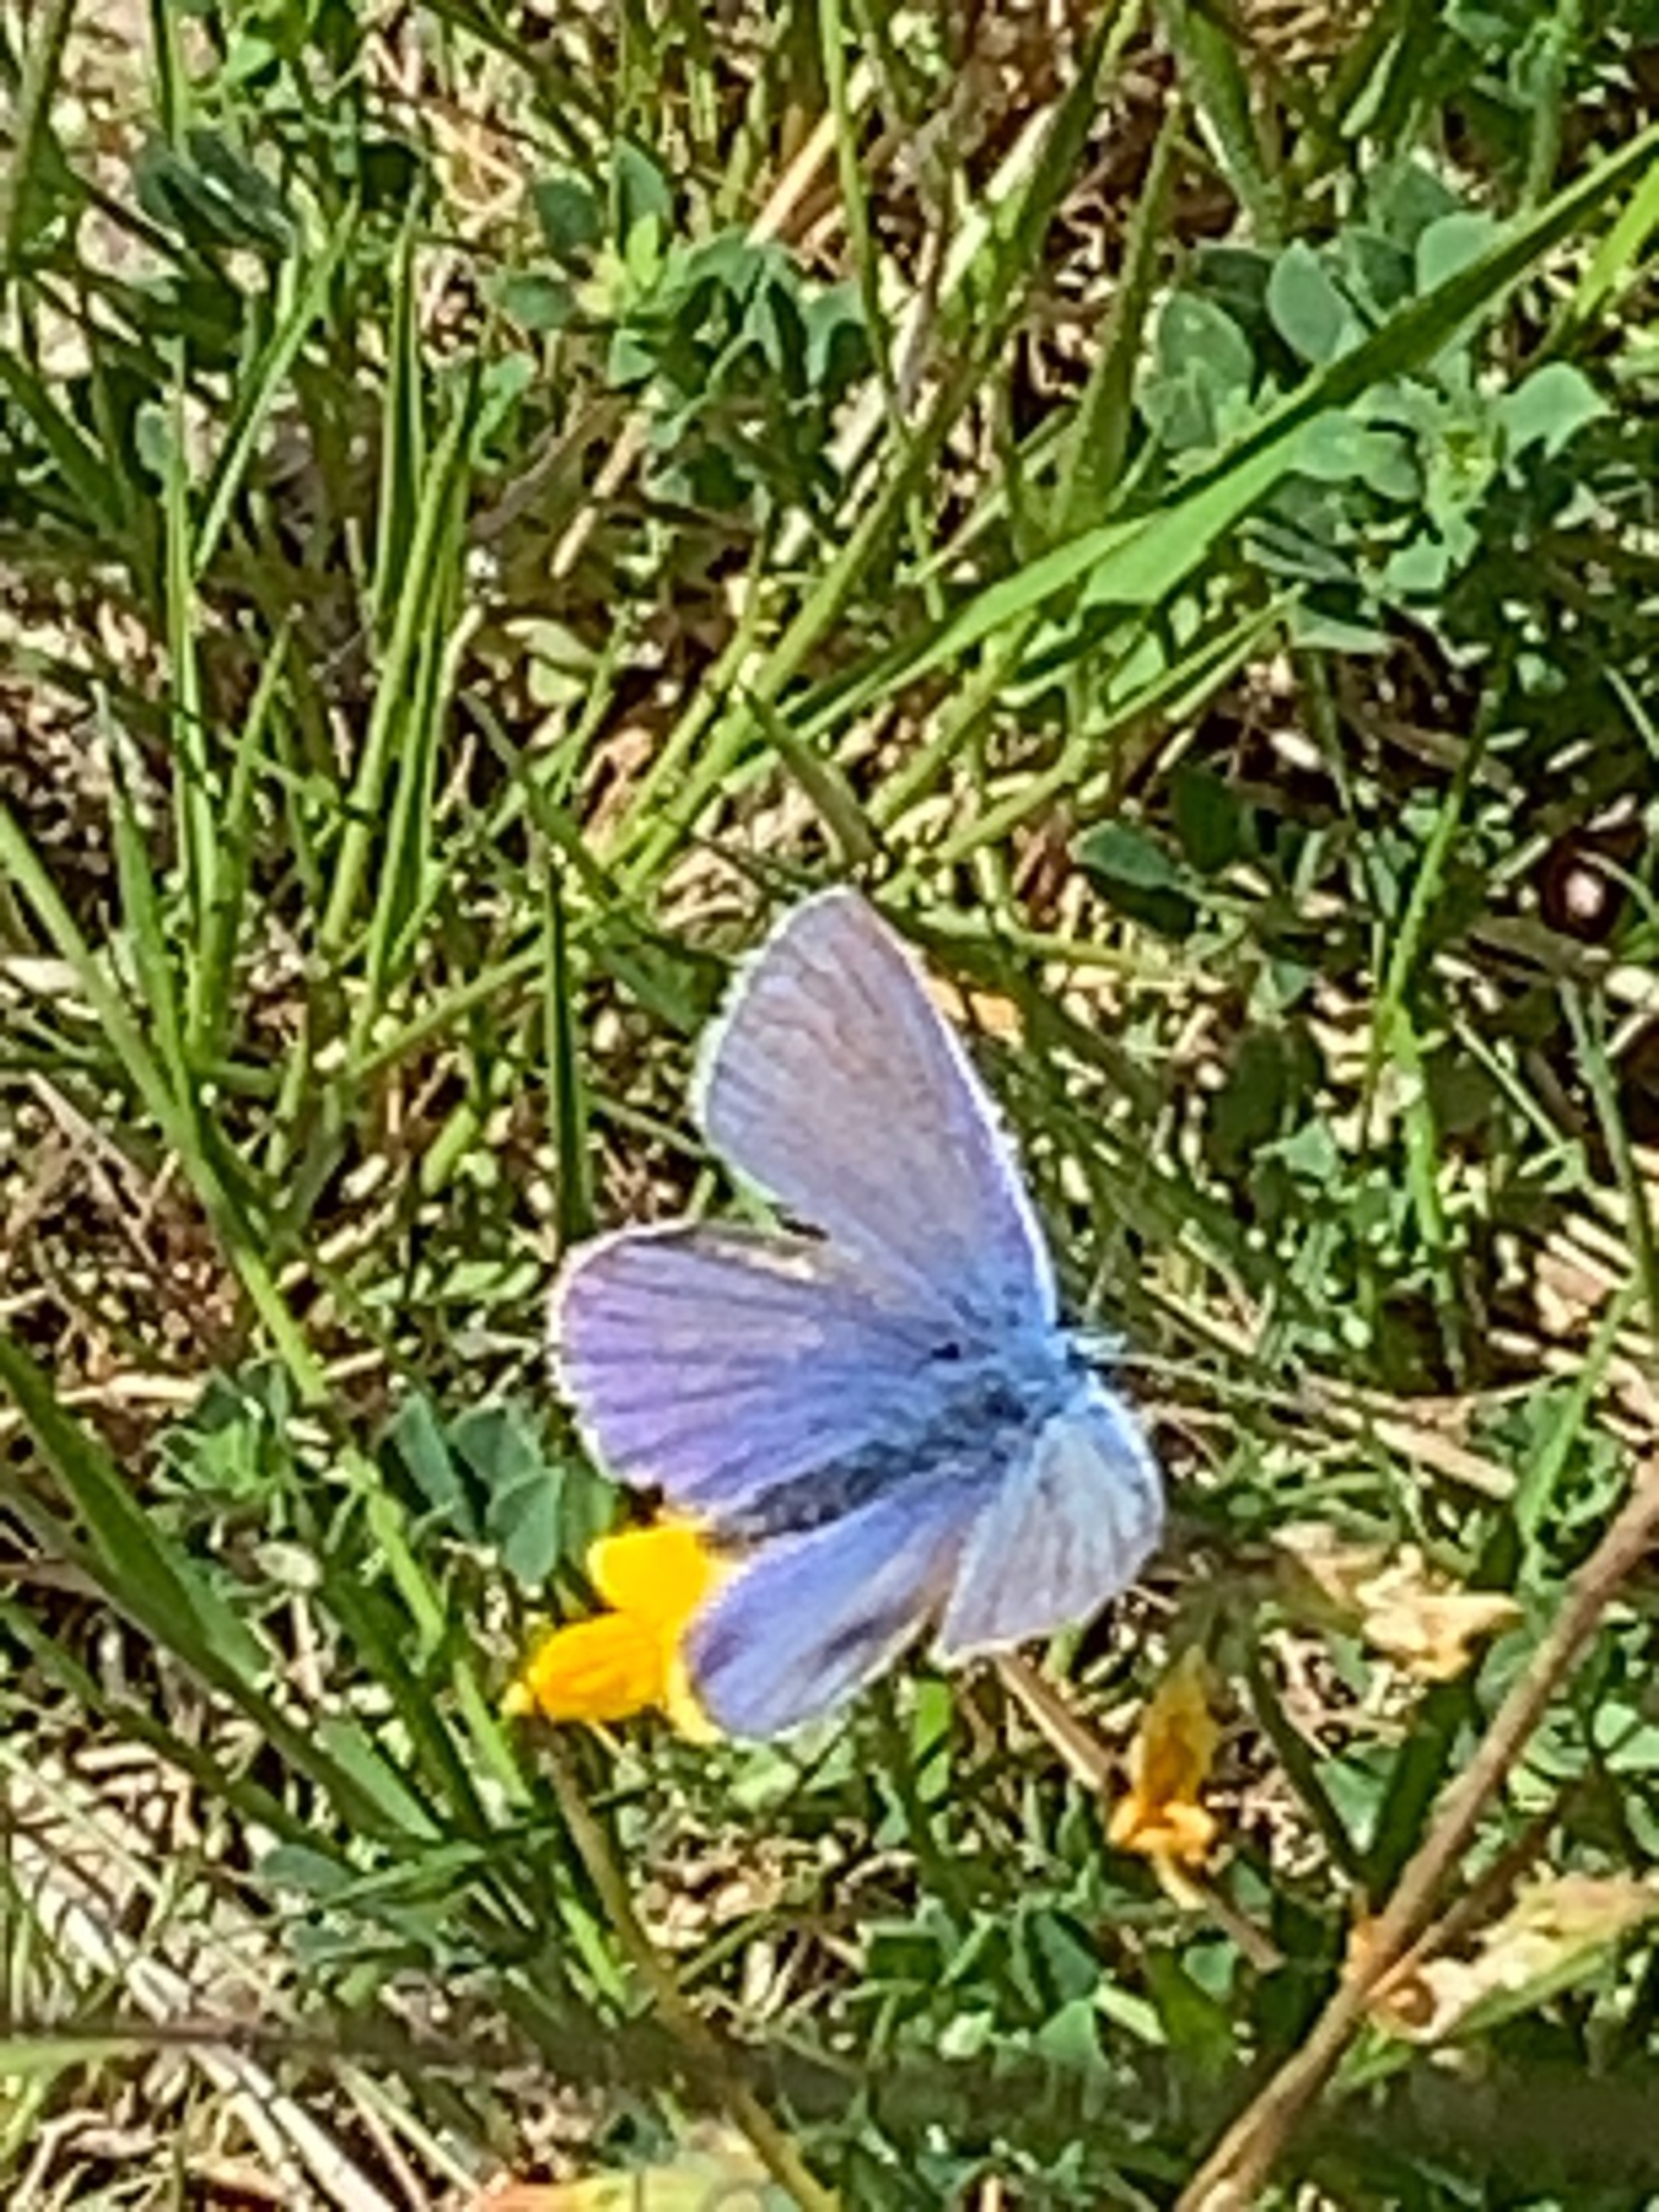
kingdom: Animalia
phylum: Arthropoda
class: Insecta
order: Lepidoptera
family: Lycaenidae
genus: Polyommatus
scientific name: Polyommatus icarus
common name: Almindelig blåfugl
